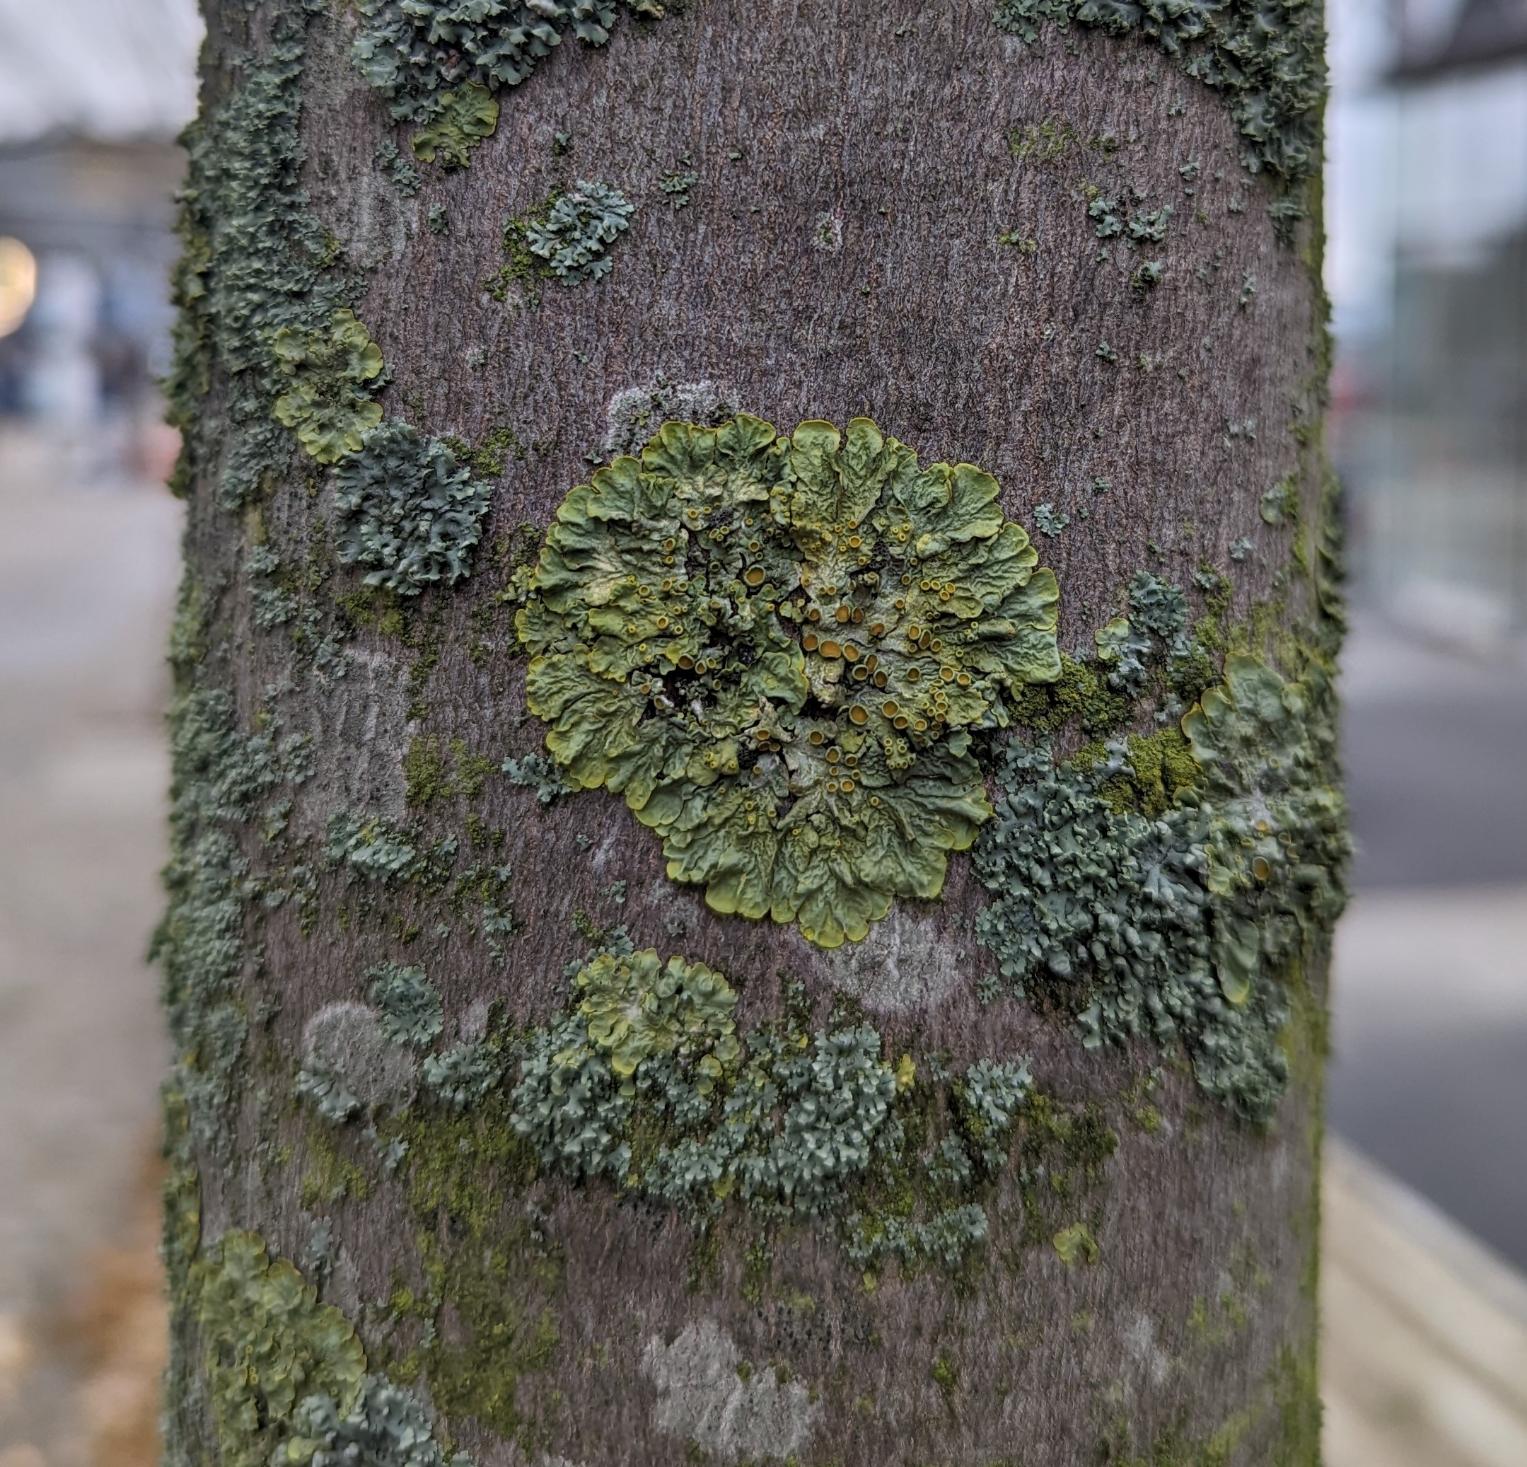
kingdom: Fungi
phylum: Ascomycota
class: Lecanoromycetes
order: Teloschistales
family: Teloschistaceae
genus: Xanthoria
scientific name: Xanthoria parietina
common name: Almindelig væggelav
